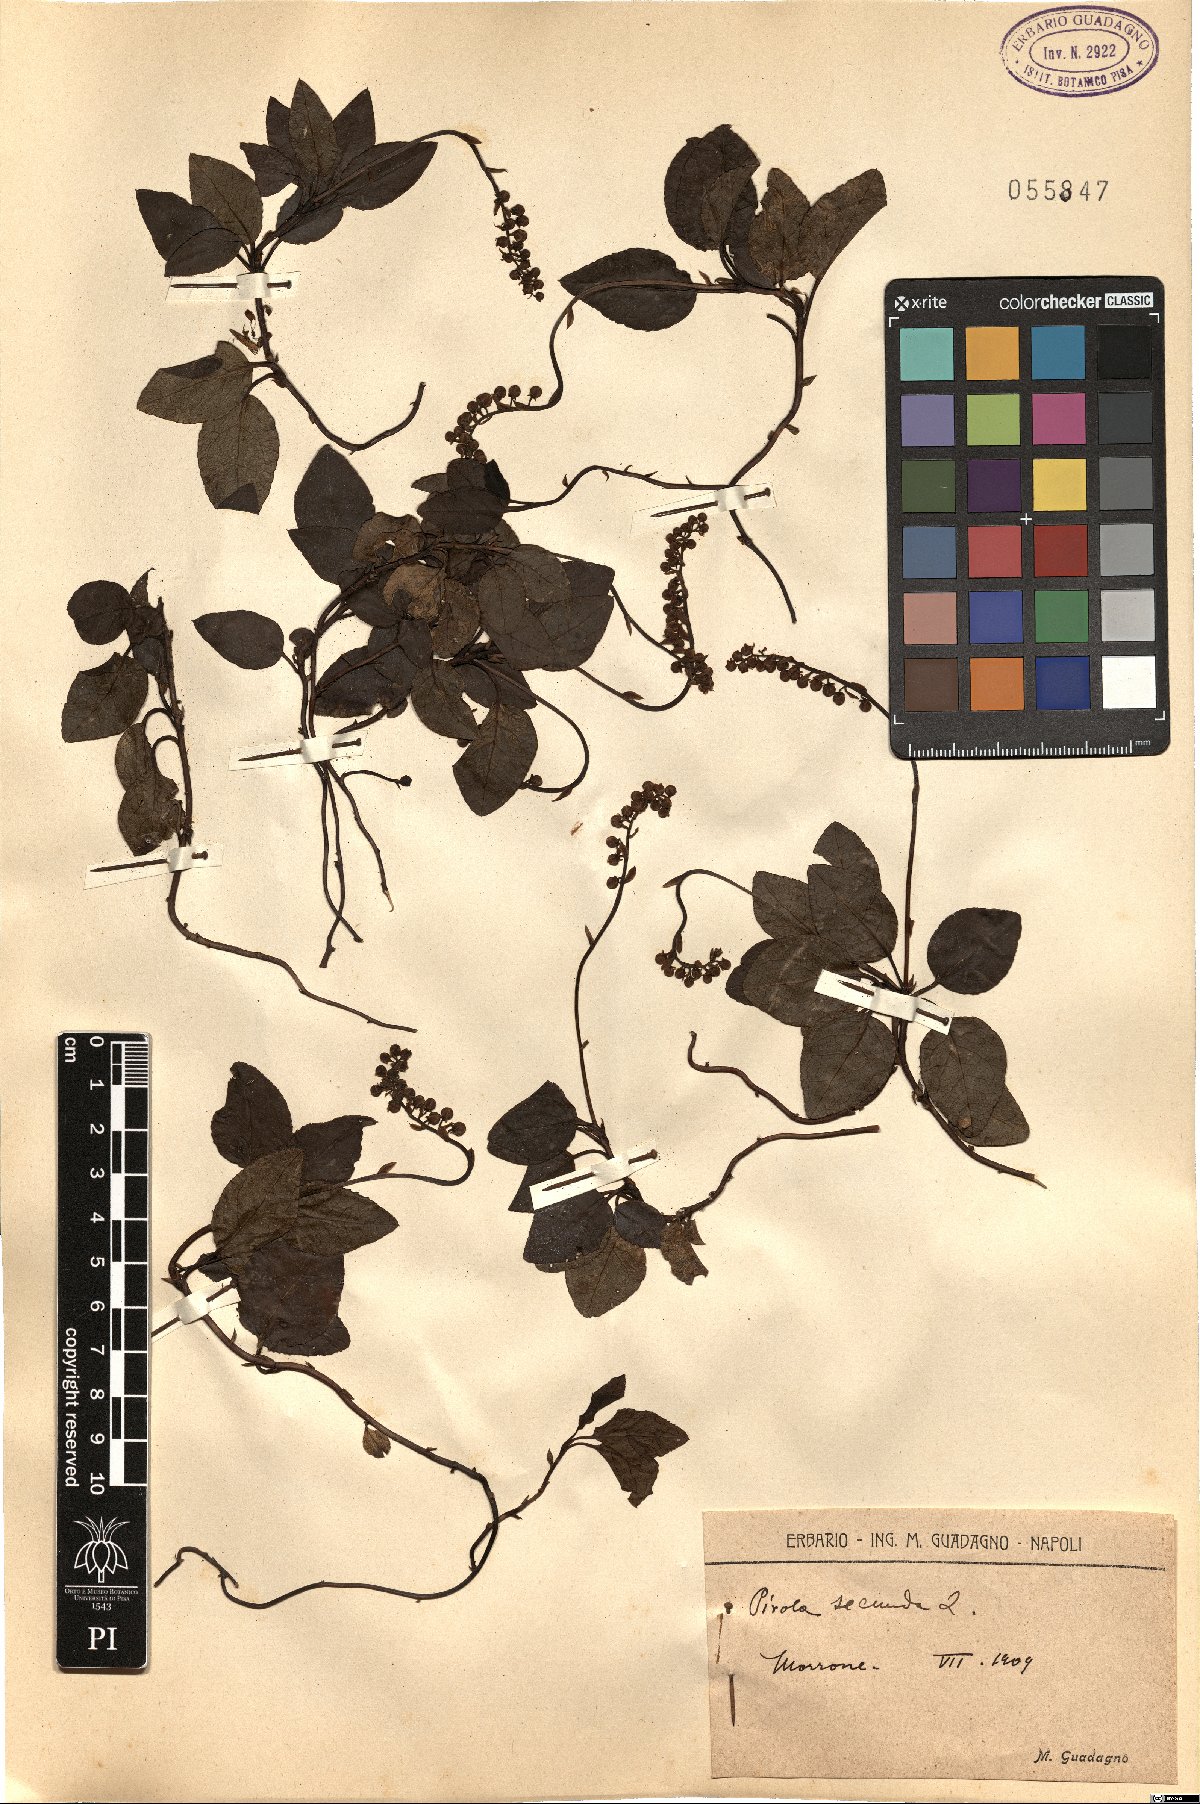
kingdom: Plantae
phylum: Tracheophyta
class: Magnoliopsida
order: Ericales
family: Ericaceae
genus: Orthilia
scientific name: Orthilia secunda
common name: One-sided orthilia
